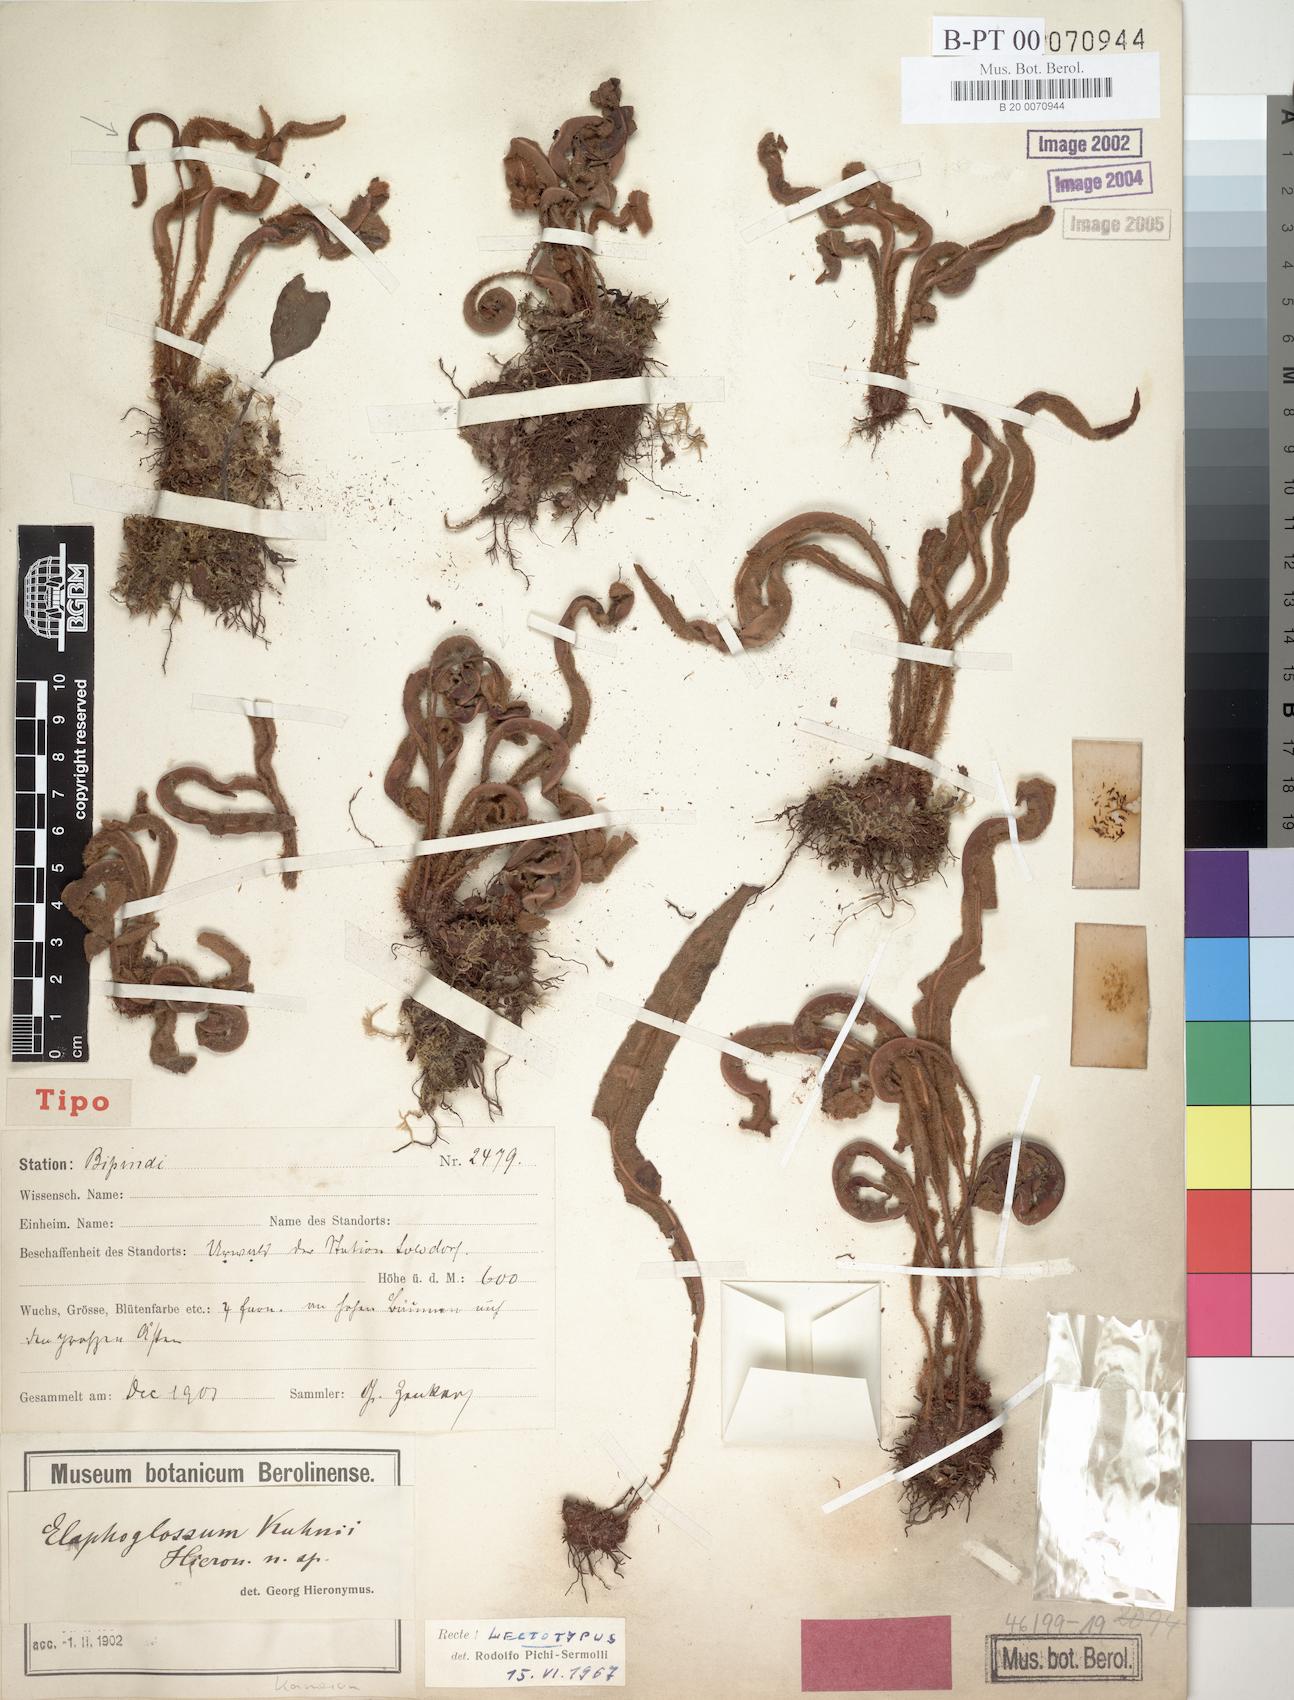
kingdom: Plantae
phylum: Tracheophyta
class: Polypodiopsida
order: Polypodiales
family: Dryopteridaceae
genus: Elaphoglossum
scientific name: Elaphoglossum kuhnii
